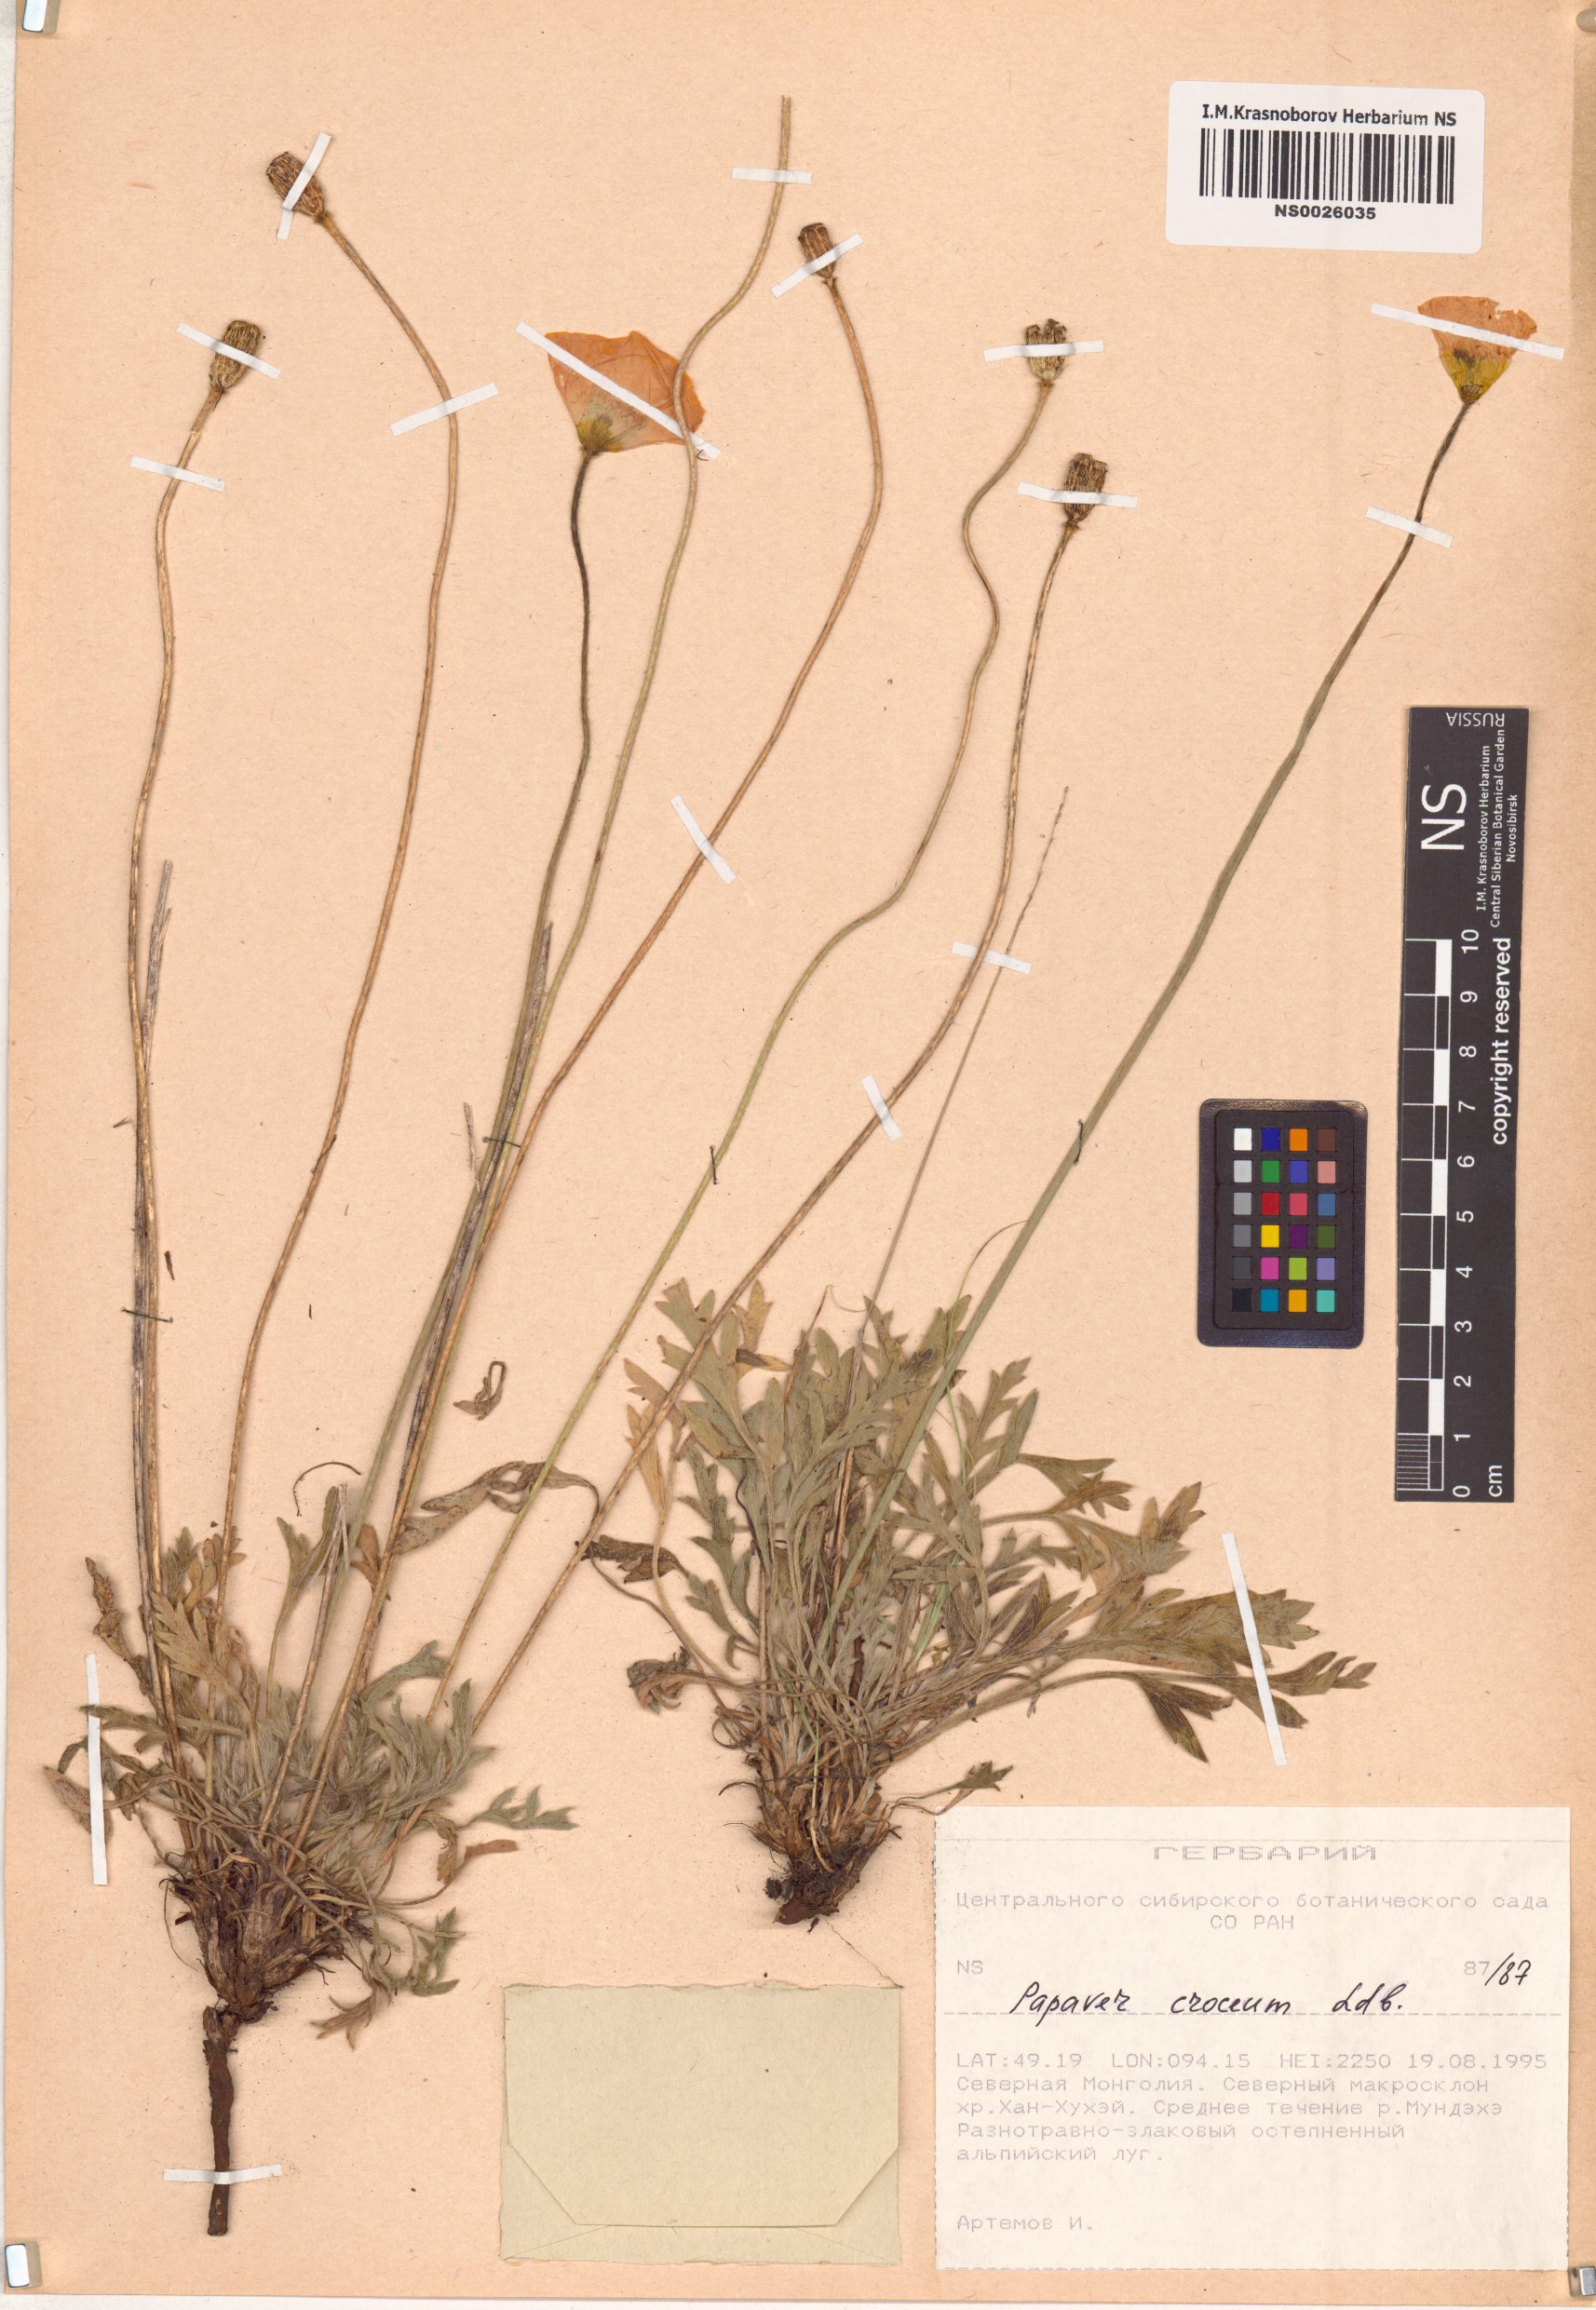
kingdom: Plantae
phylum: Tracheophyta
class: Magnoliopsida
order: Ranunculales
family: Papaveraceae
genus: Papaver
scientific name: Papaver croceum
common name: Siberian poppy
